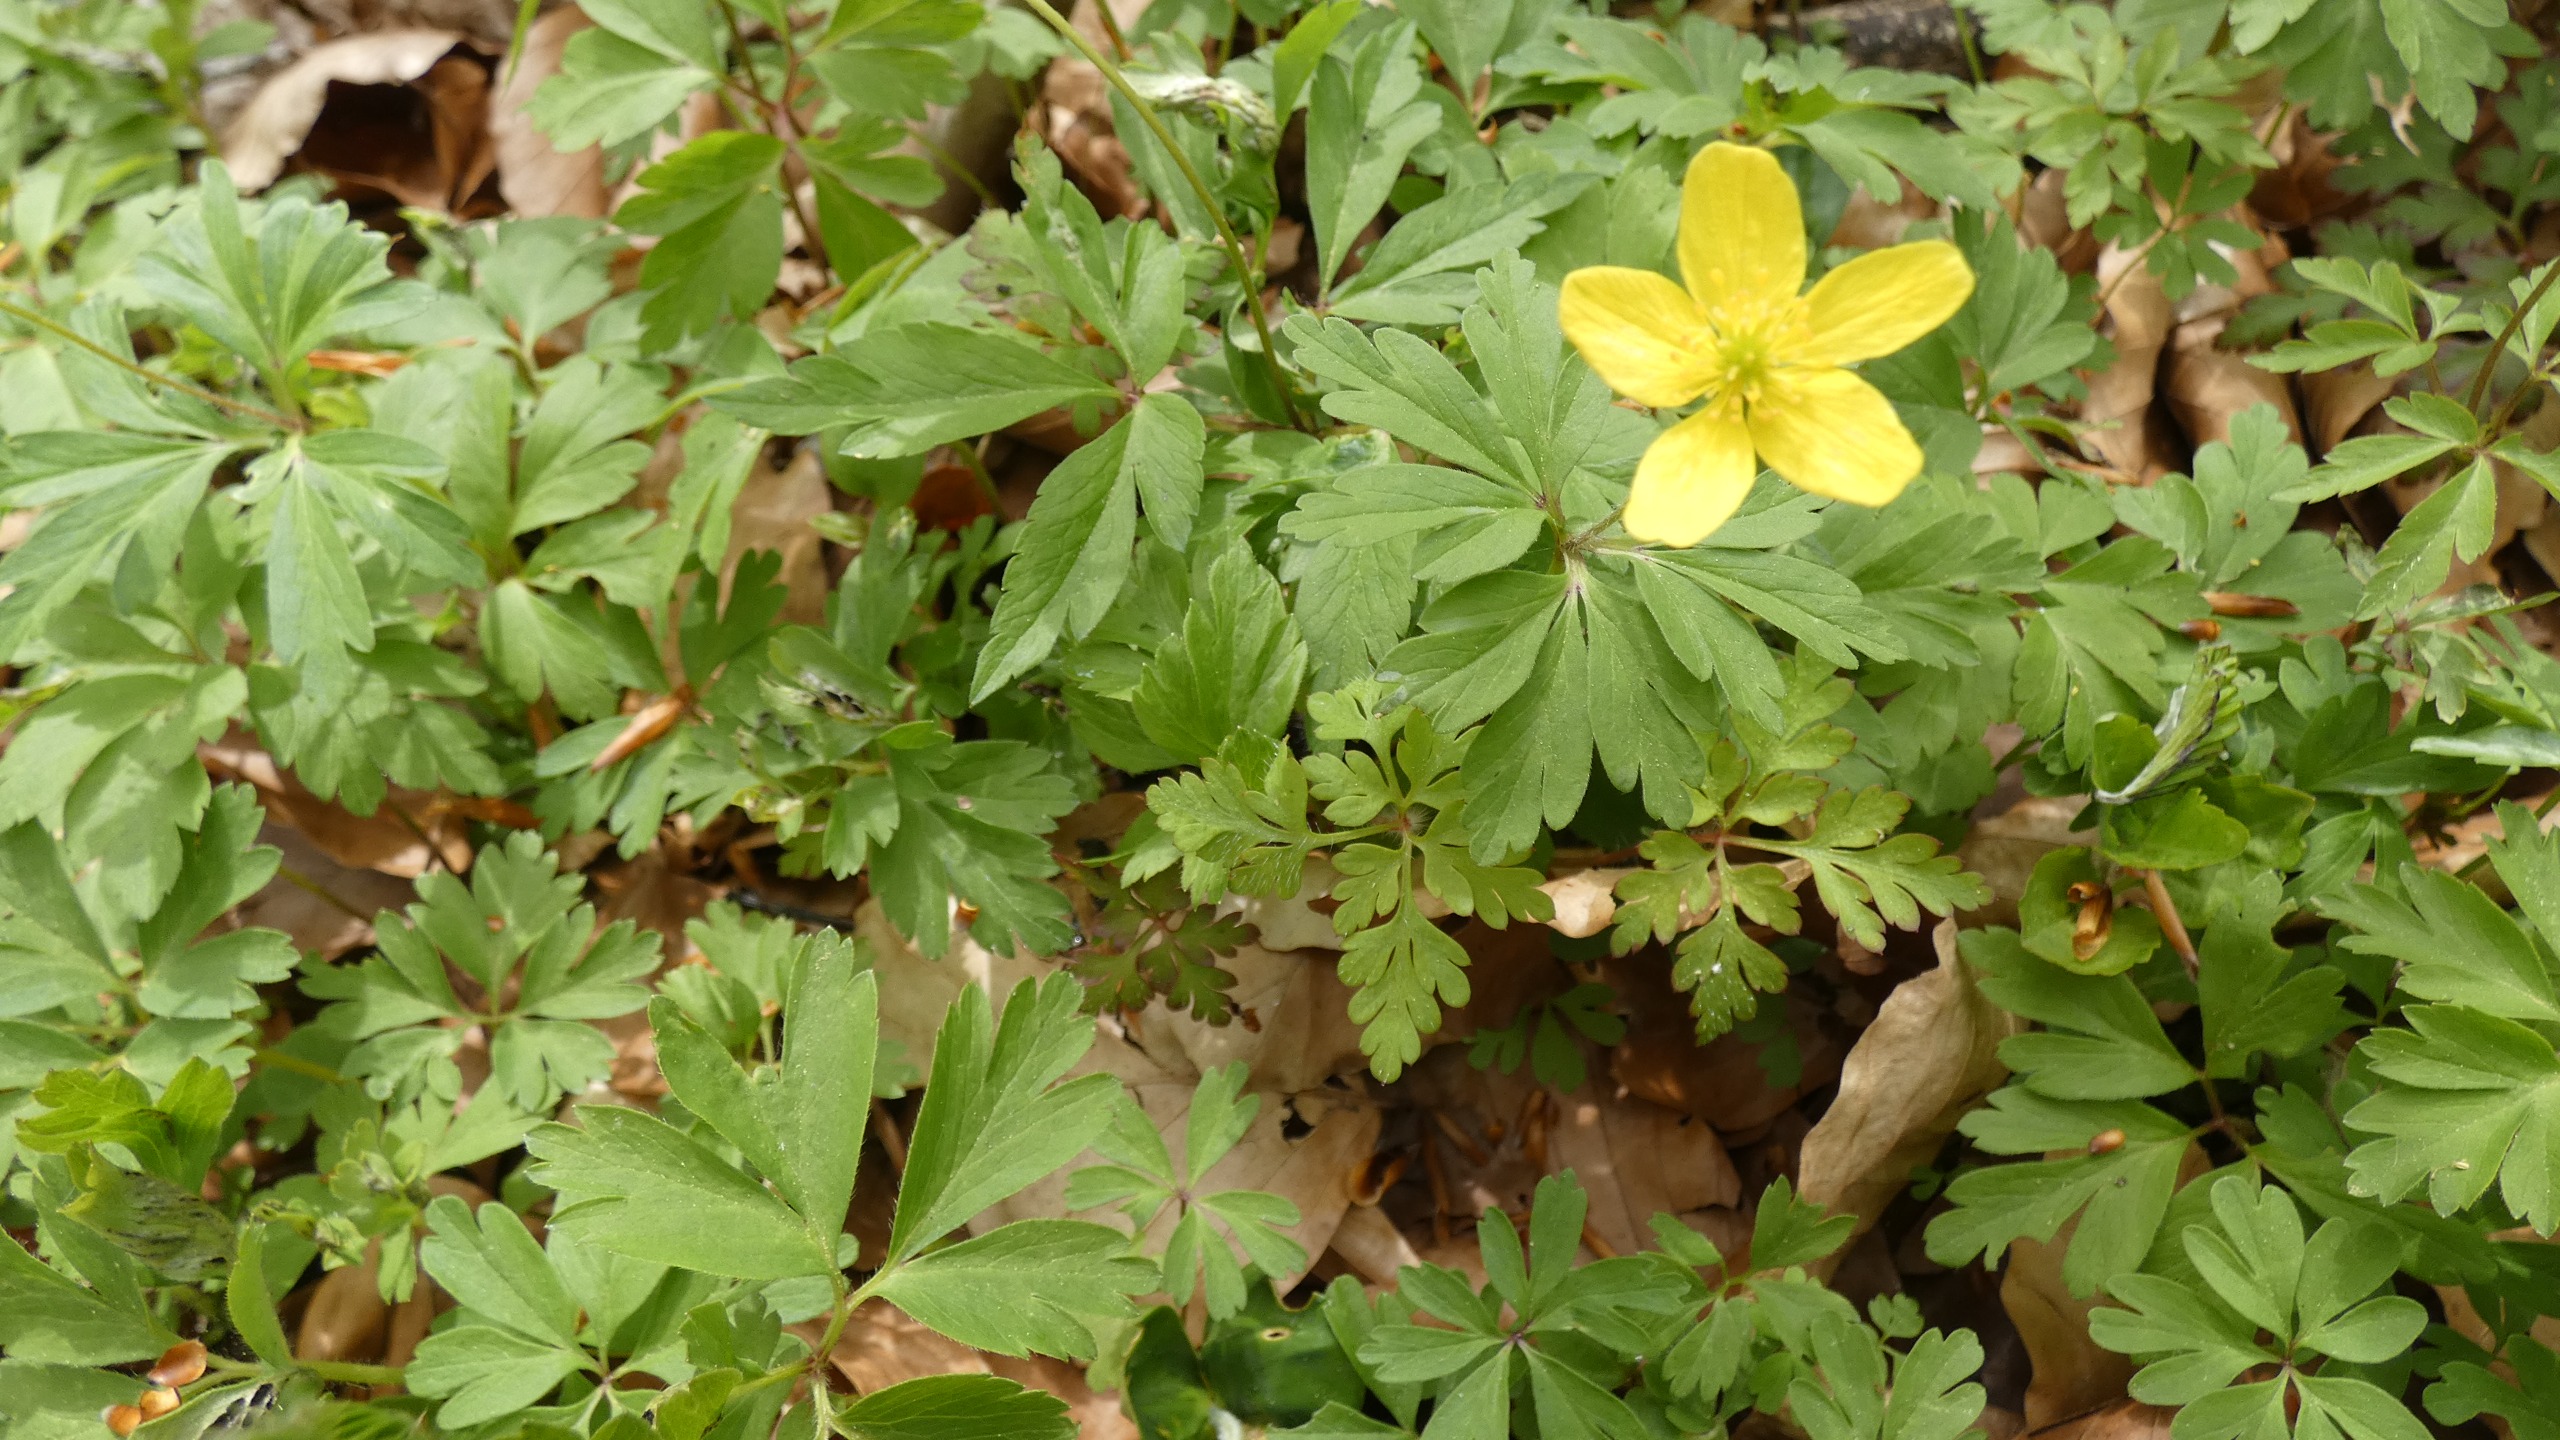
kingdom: Plantae
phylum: Tracheophyta
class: Magnoliopsida
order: Ranunculales
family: Ranunculaceae
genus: Anemone
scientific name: Anemone ranunculoides
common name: Gul anemone
